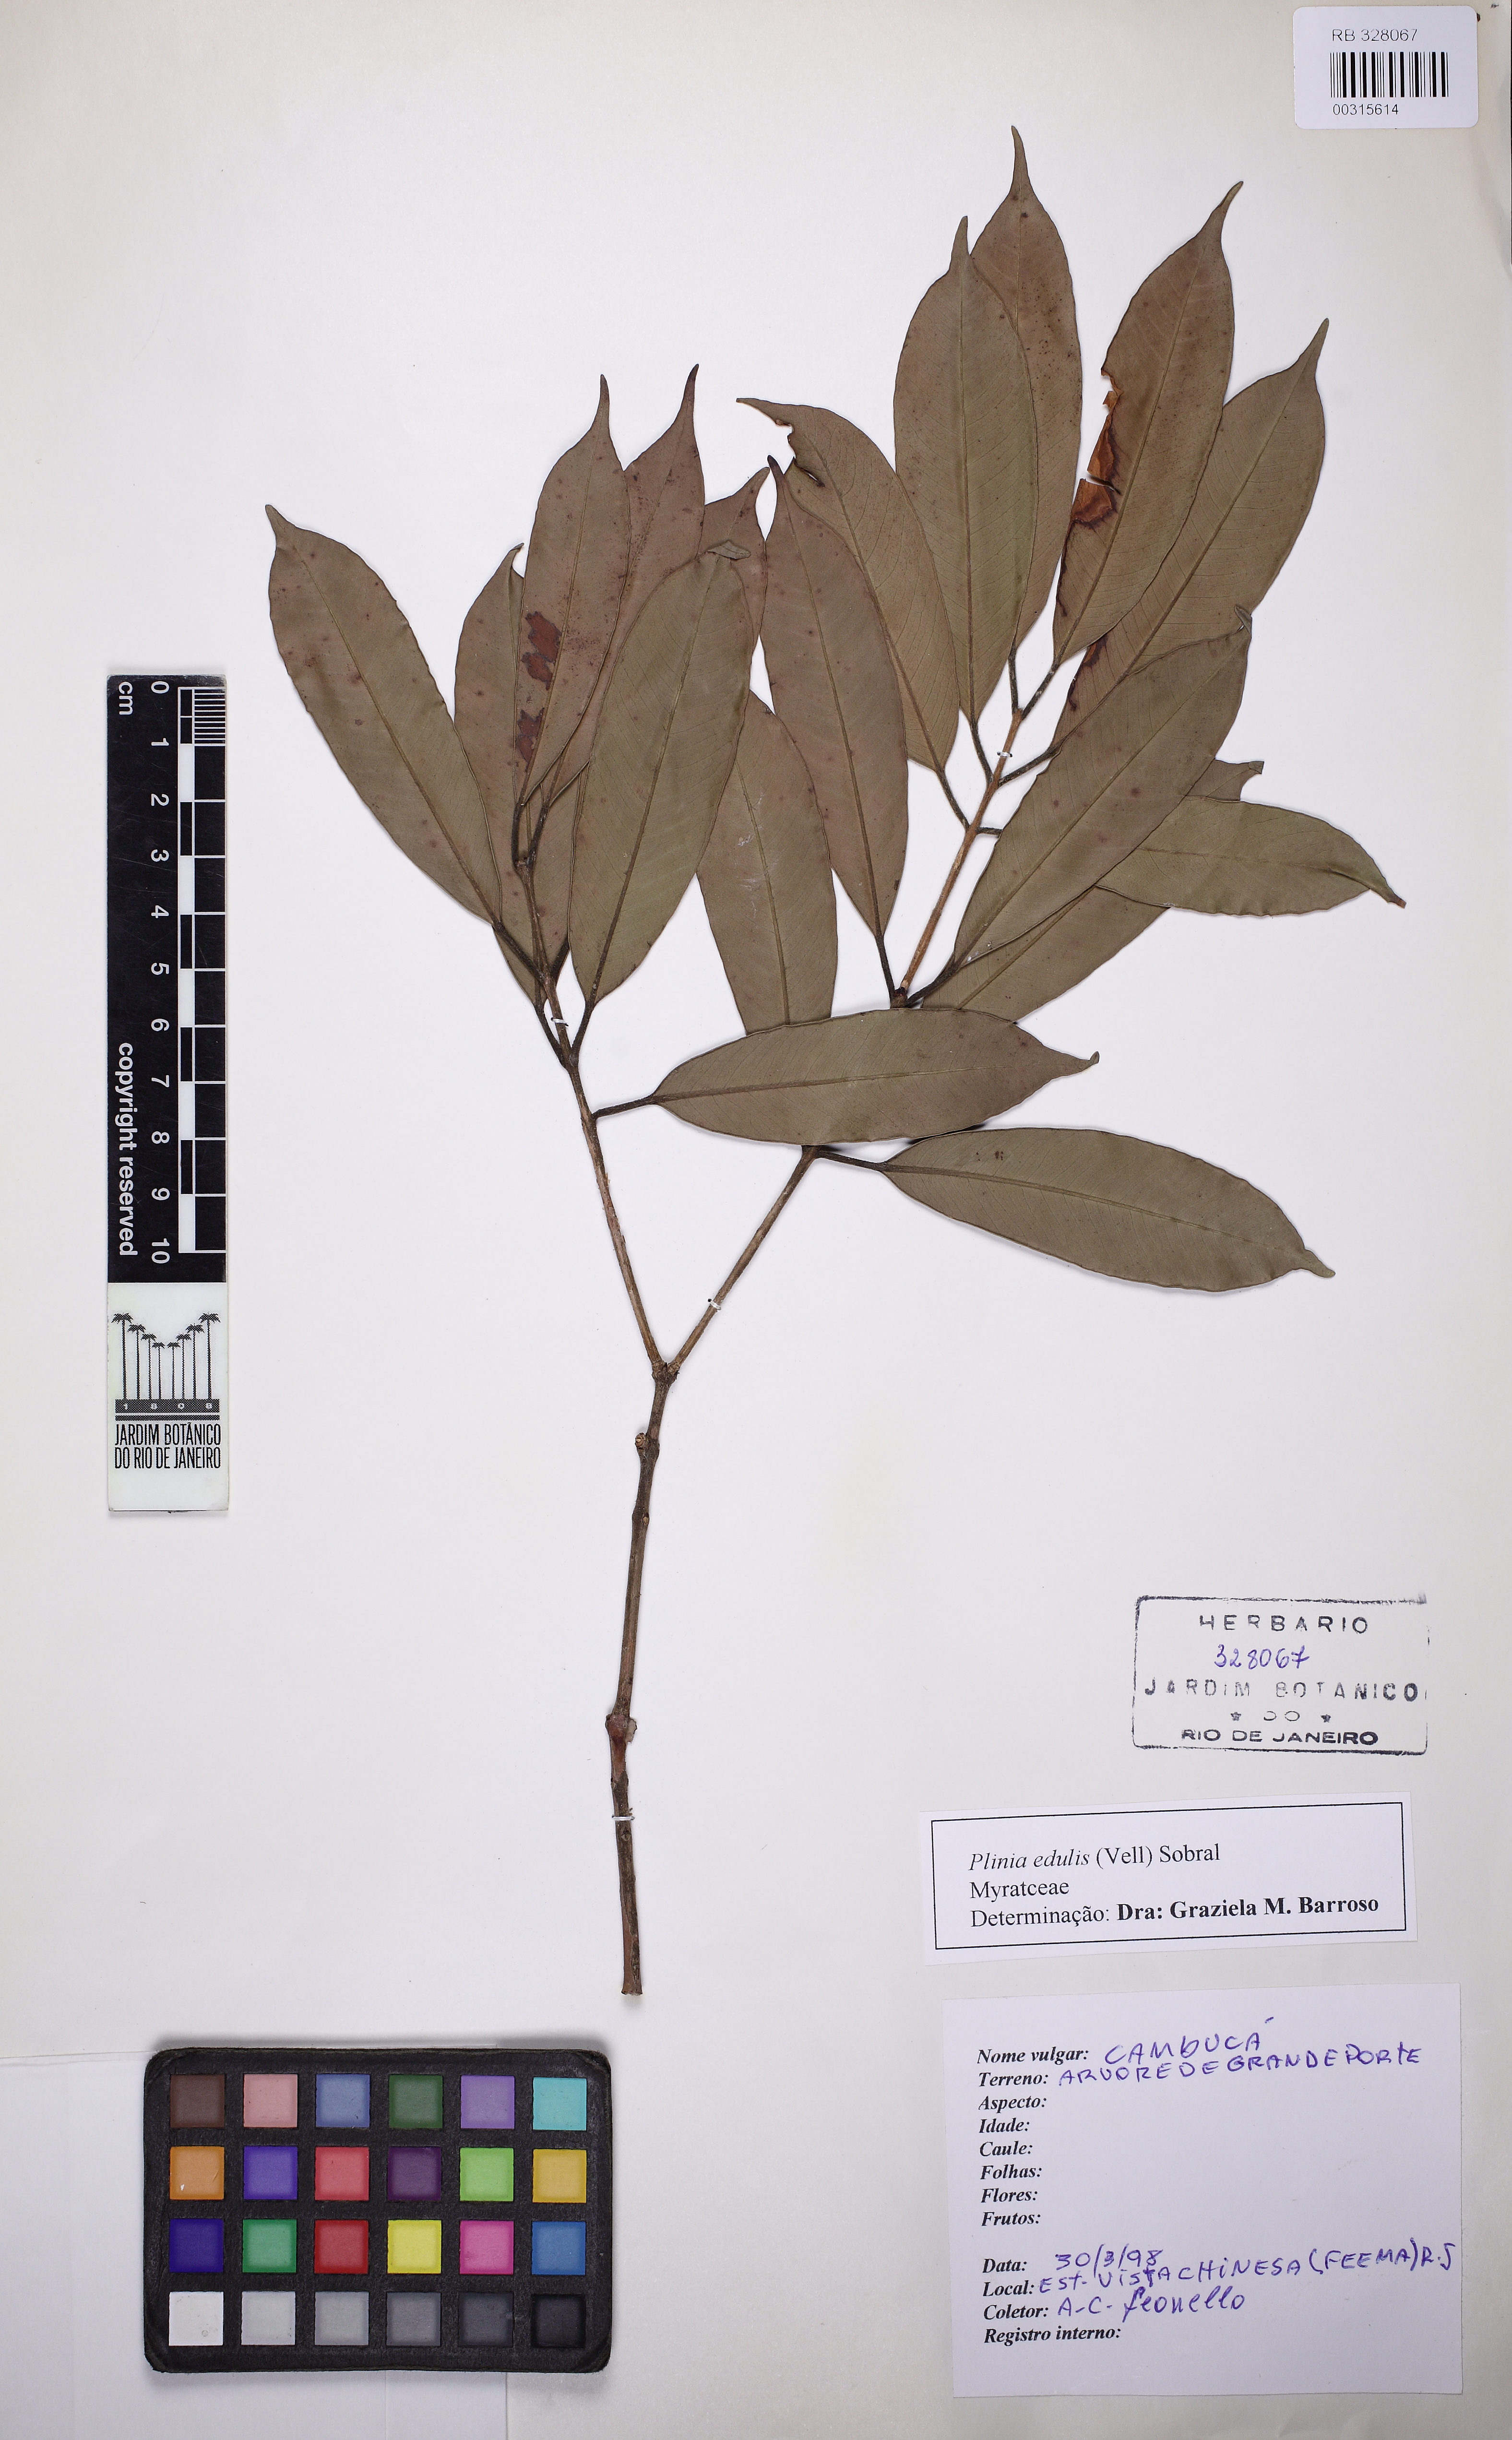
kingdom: Plantae
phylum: Tracheophyta
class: Magnoliopsida
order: Myrtales
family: Myrtaceae
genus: Plinia
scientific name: Plinia edulis
